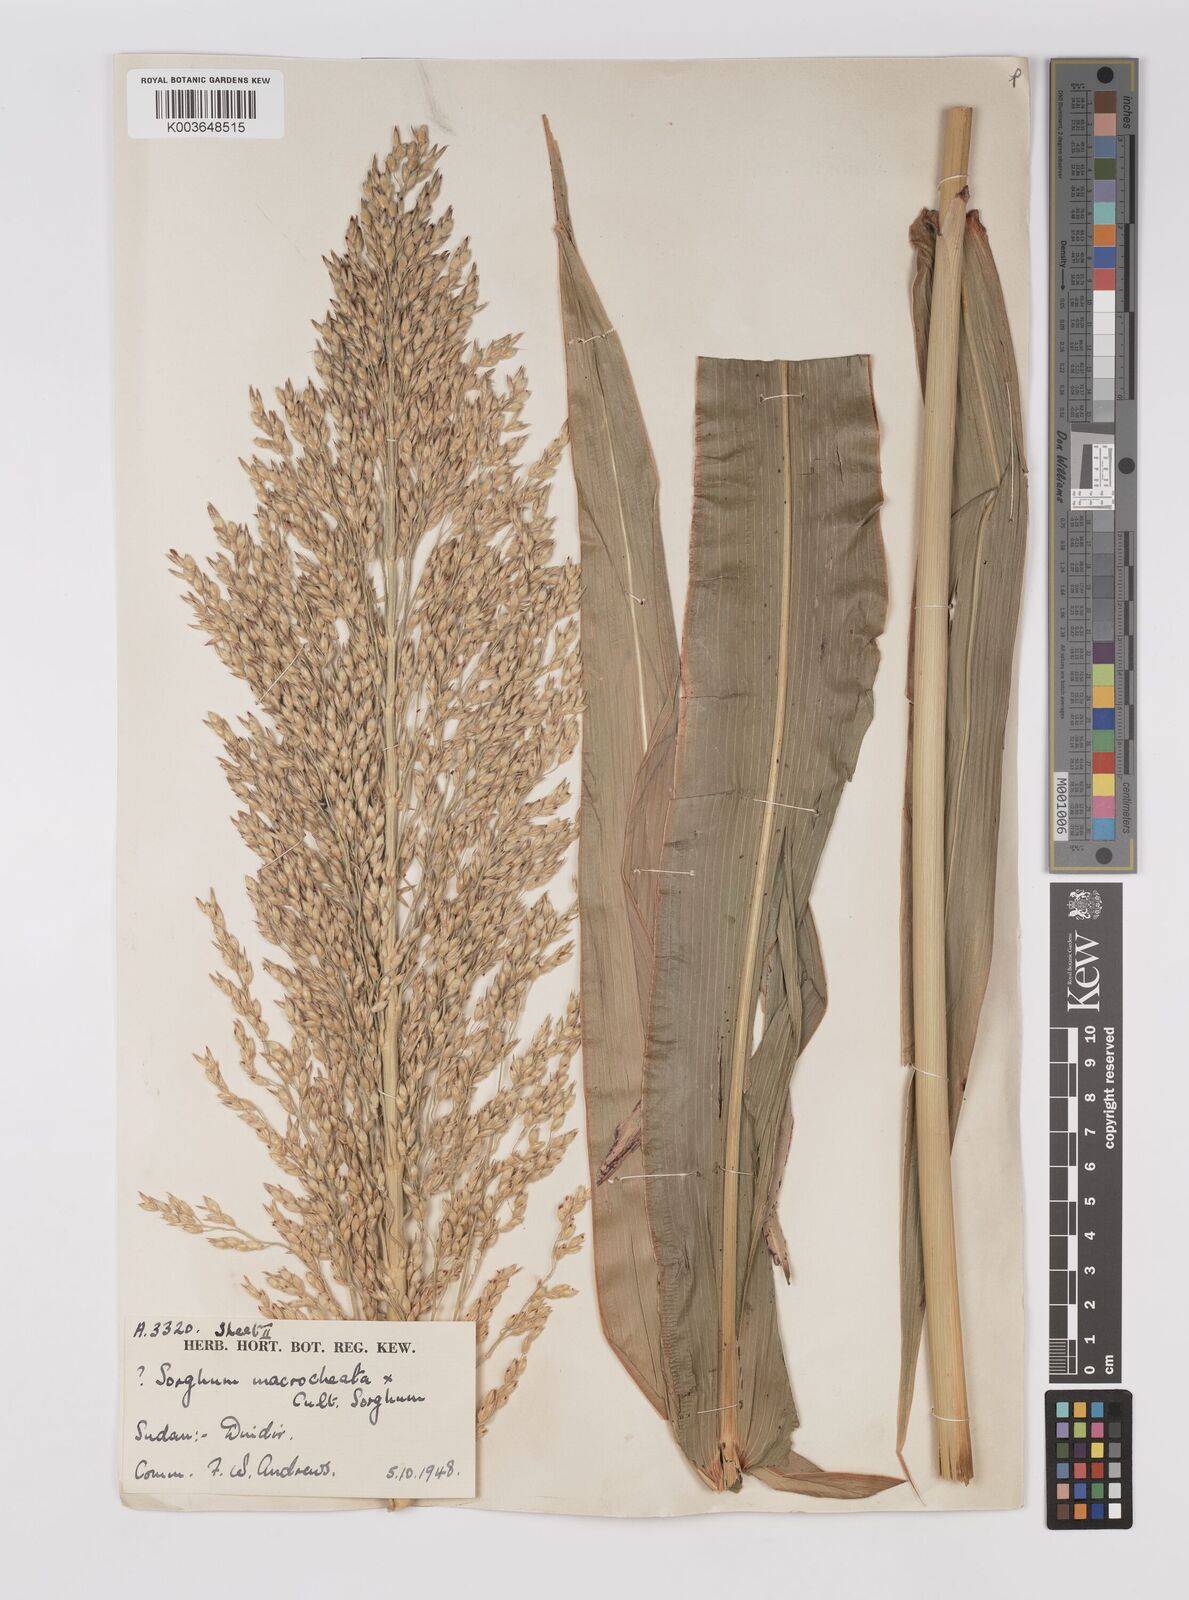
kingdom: Plantae
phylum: Tracheophyta
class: Liliopsida
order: Poales
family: Poaceae
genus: Sorghum
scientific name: Sorghum drummondii
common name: Sudangrass
